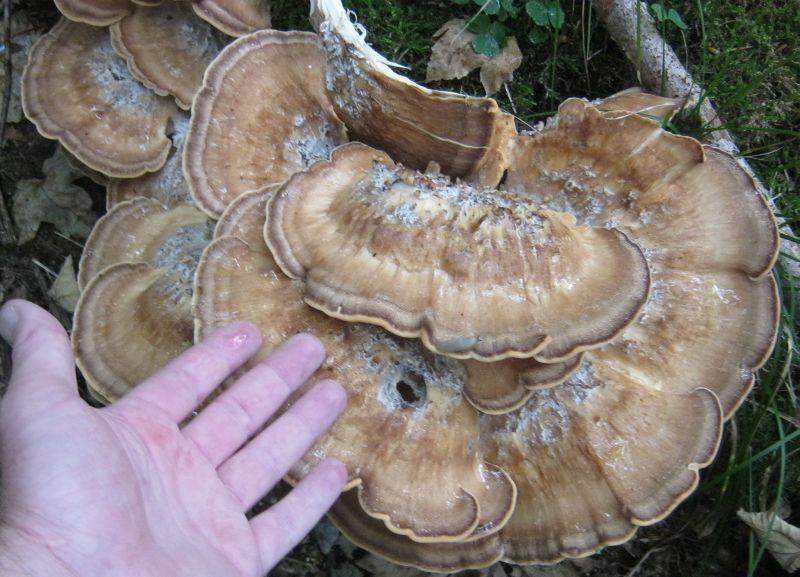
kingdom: Fungi
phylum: Basidiomycota
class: Agaricomycetes
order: Polyporales
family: Meripilaceae
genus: Meripilus
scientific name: Meripilus giganteus
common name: kæmpeporesvamp
